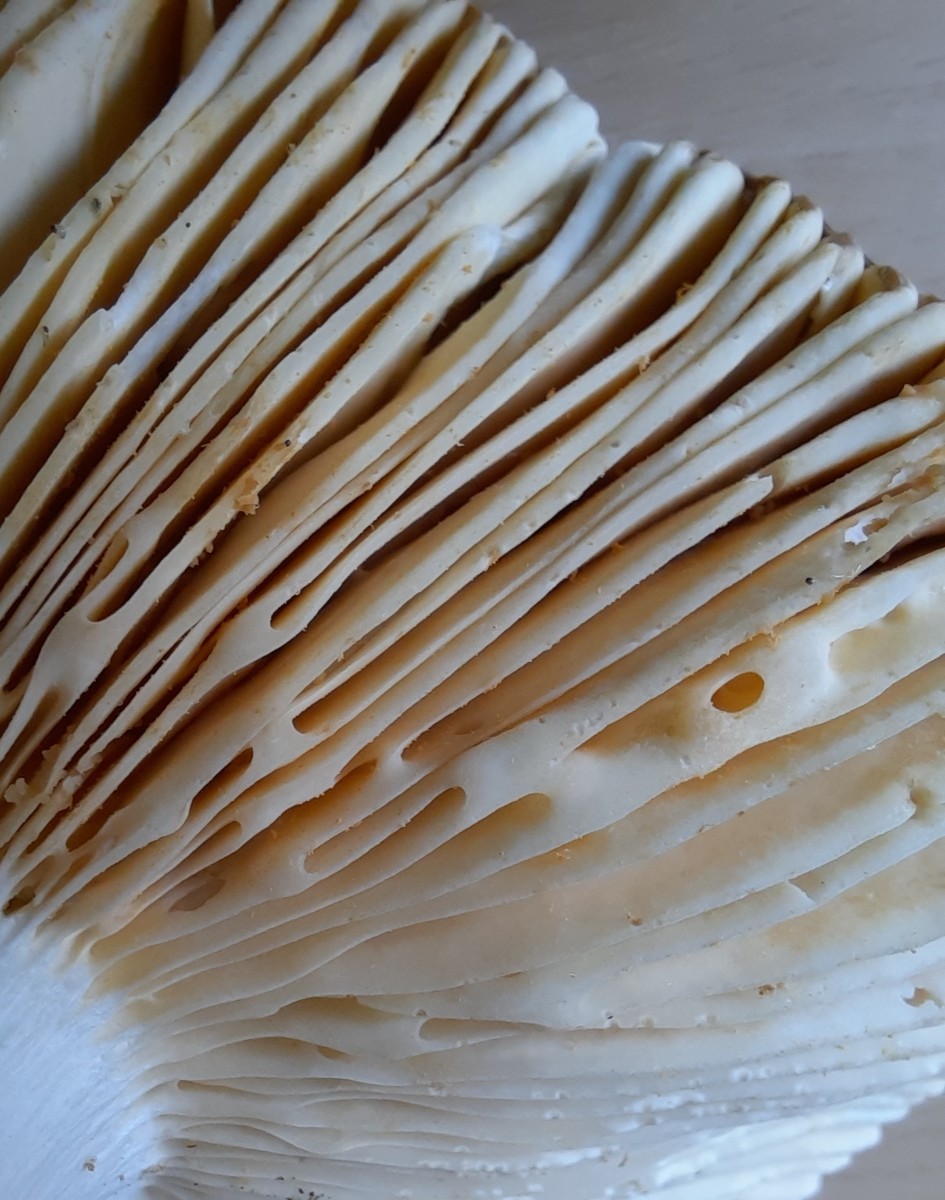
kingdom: Fungi
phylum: Basidiomycota
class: Agaricomycetes
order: Russulales
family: Russulaceae
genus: Russula
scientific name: Russula integra
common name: mandel-skørhat
